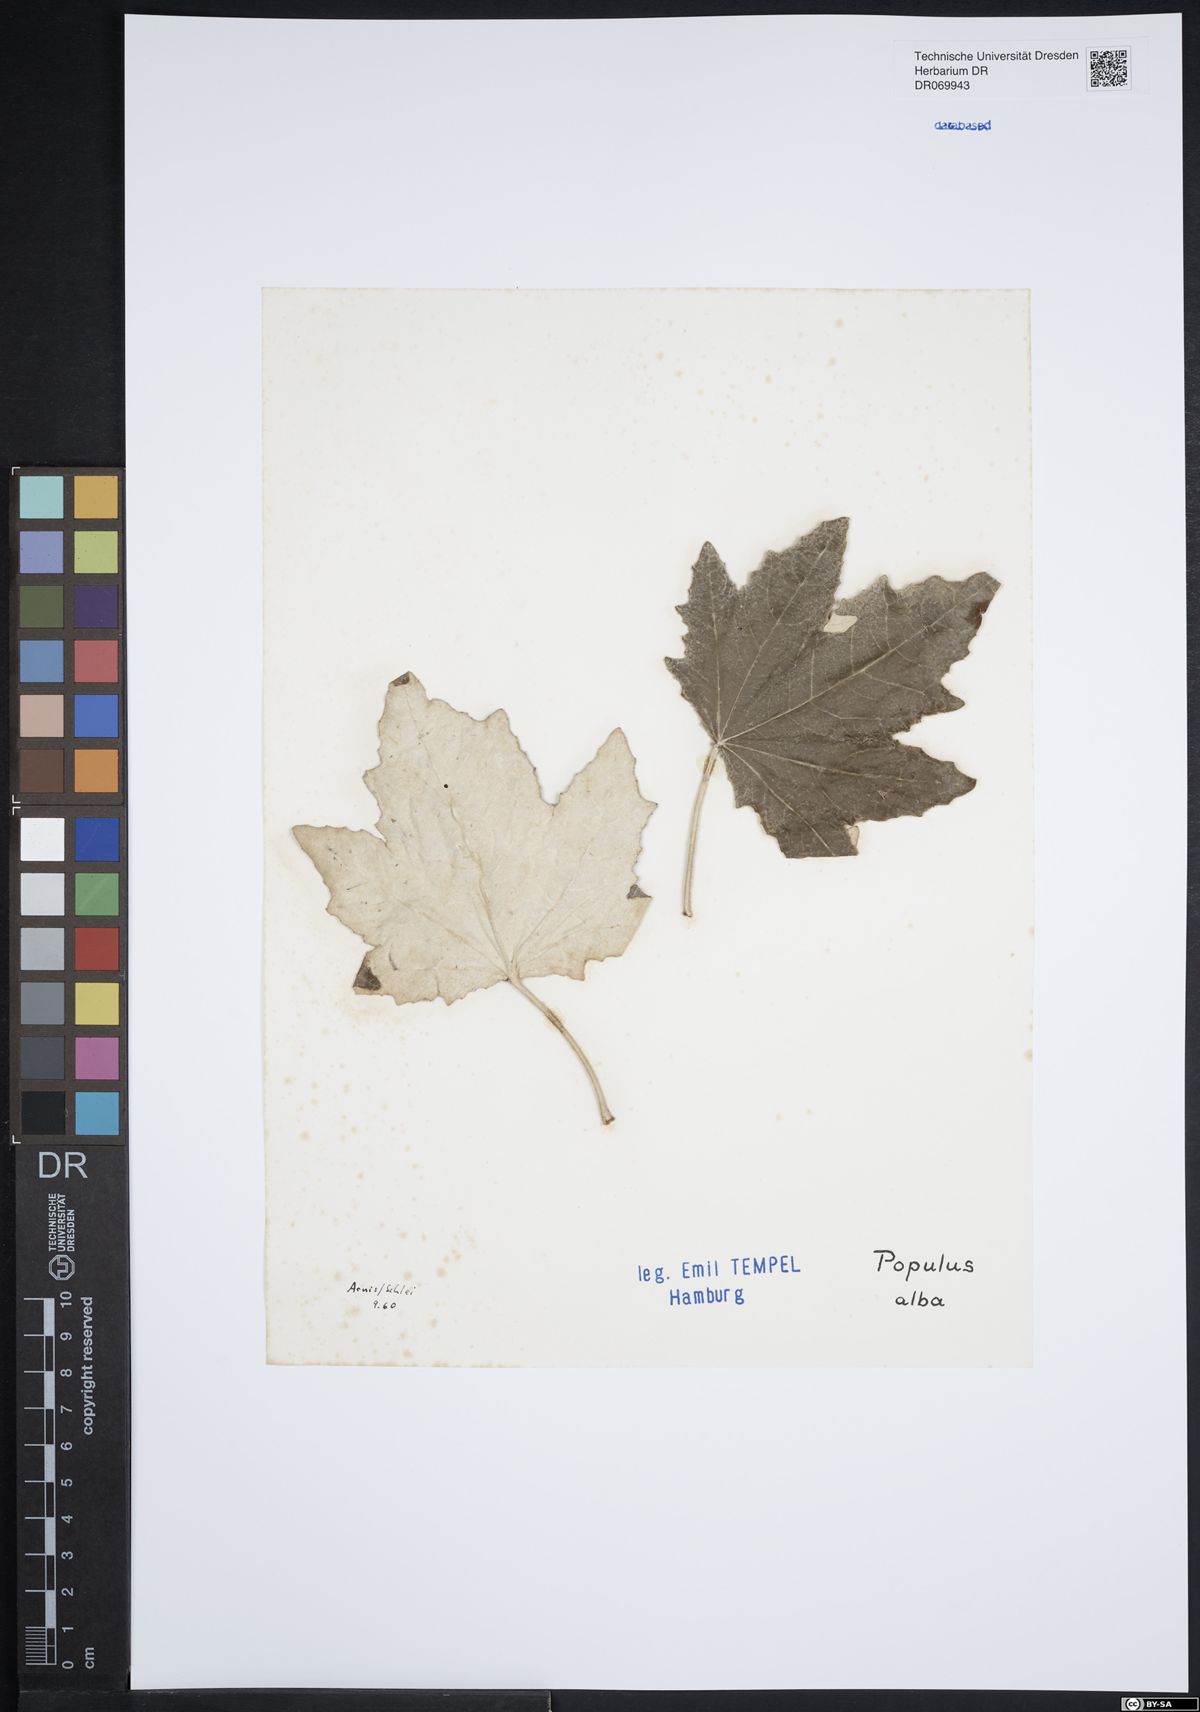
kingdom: Plantae
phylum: Tracheophyta
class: Magnoliopsida
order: Malpighiales
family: Salicaceae
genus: Populus
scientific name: Populus alba
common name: White poplar
